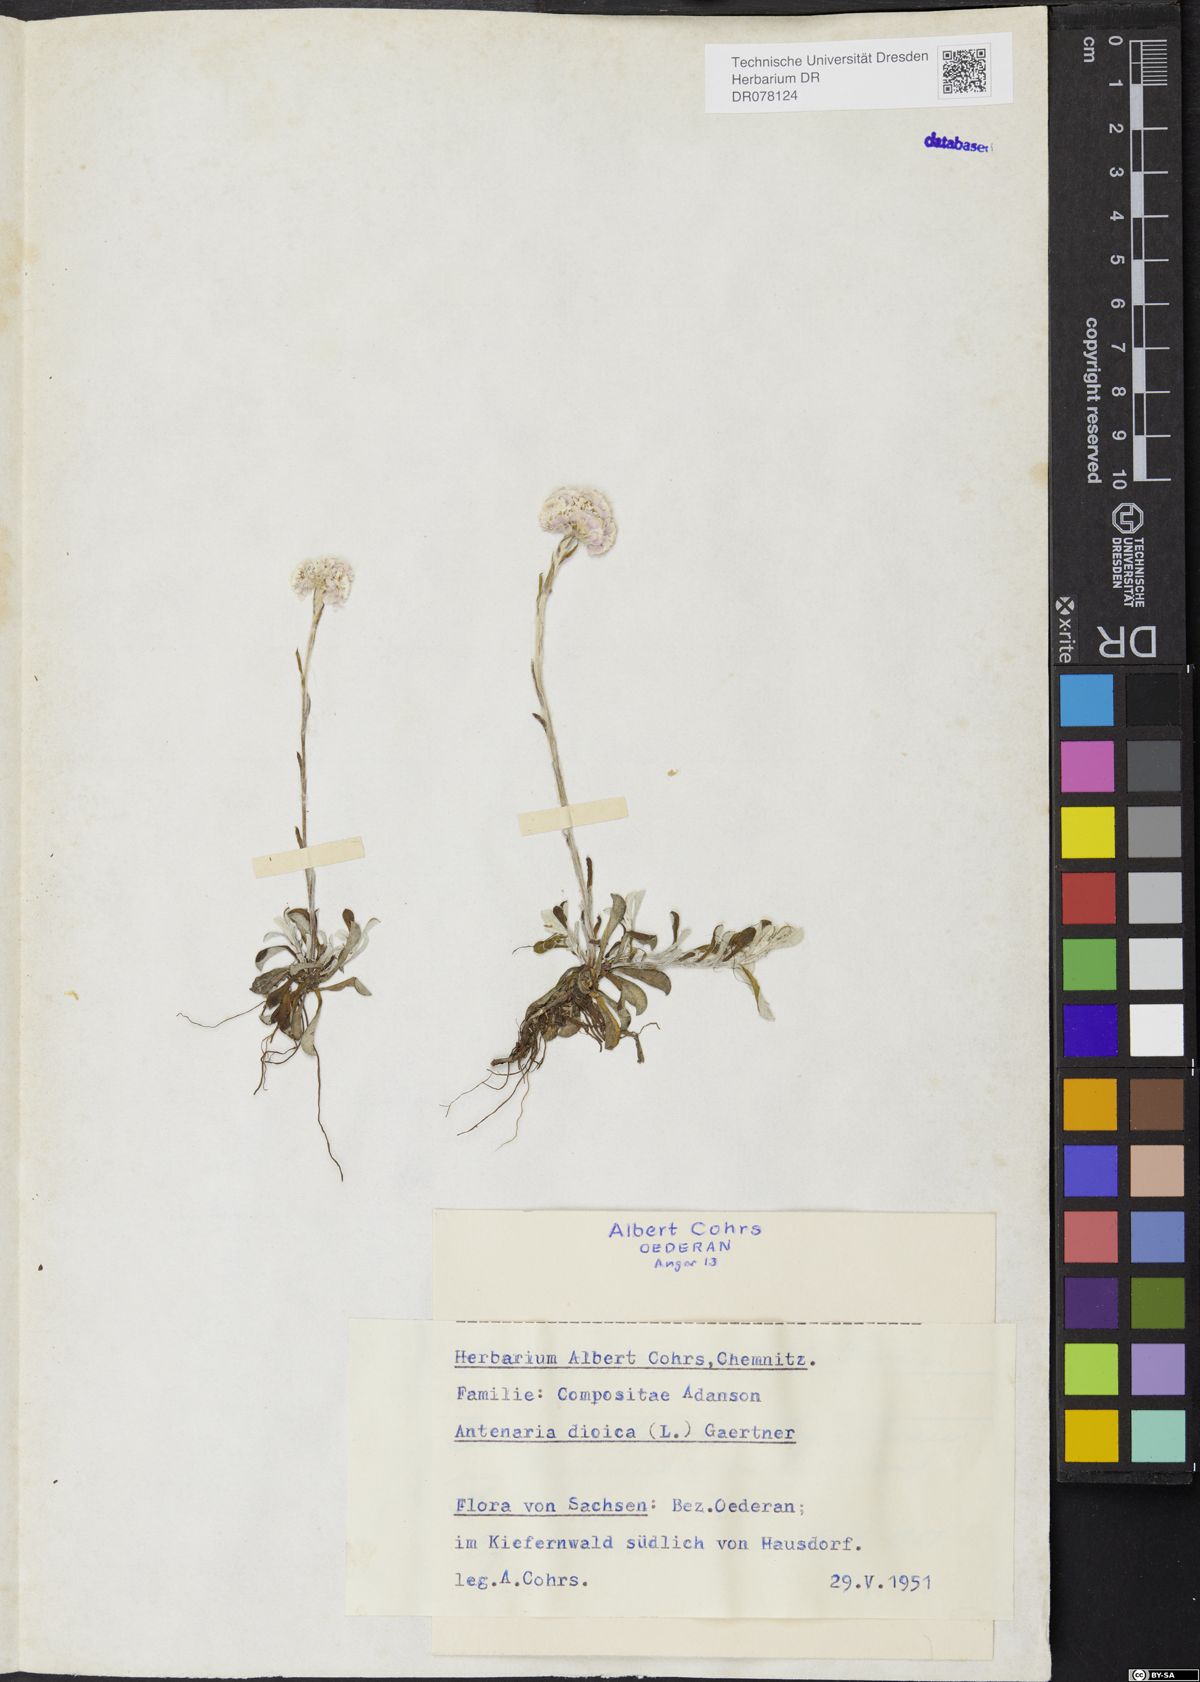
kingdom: Plantae
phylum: Tracheophyta
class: Magnoliopsida
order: Asterales
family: Asteraceae
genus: Antennaria
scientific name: Antennaria dioica
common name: Mountain everlasting
